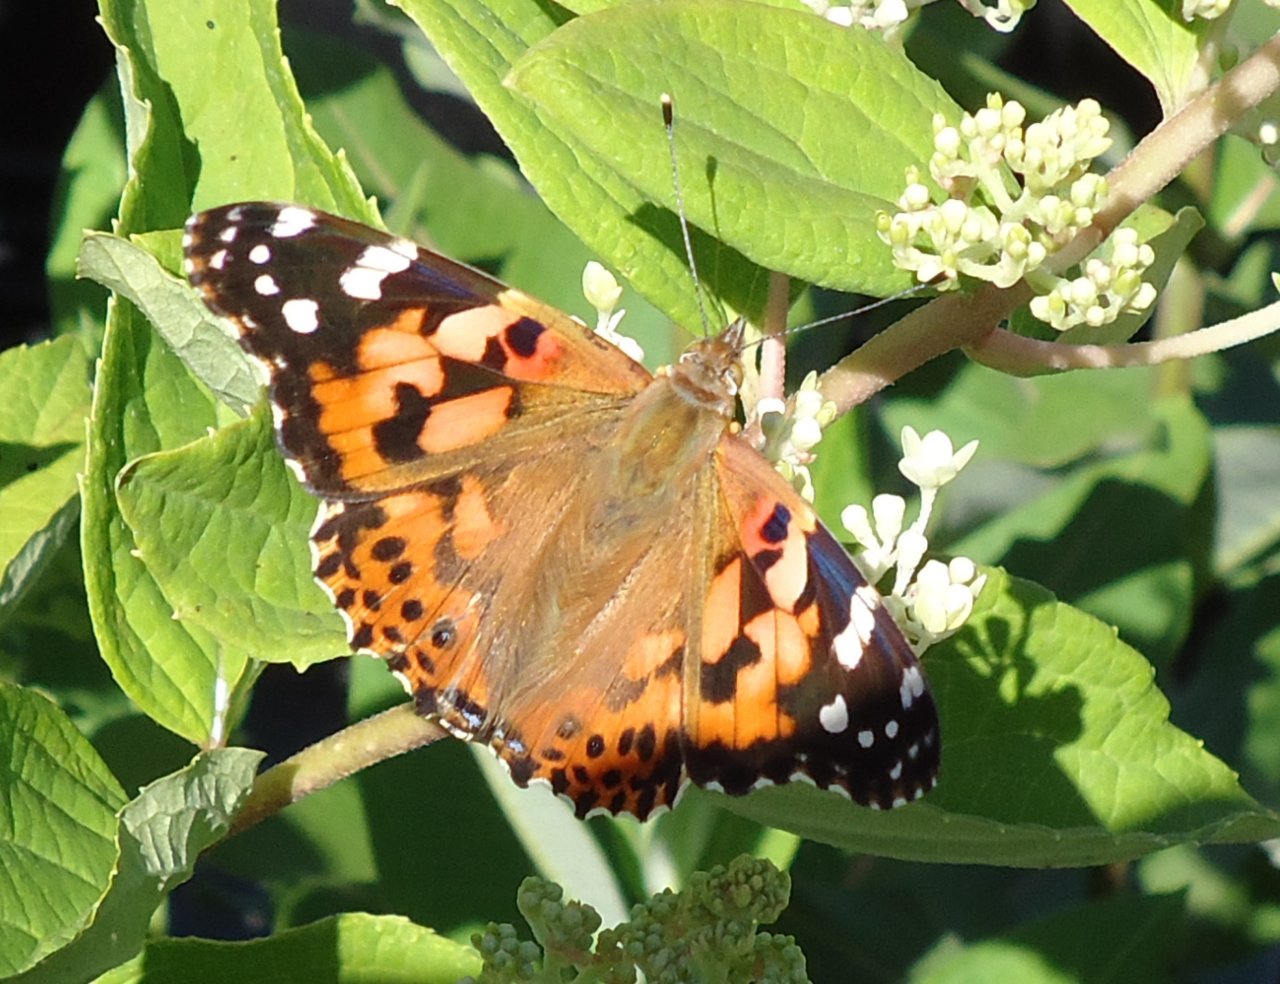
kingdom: Animalia
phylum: Arthropoda
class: Insecta
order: Lepidoptera
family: Nymphalidae
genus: Vanessa
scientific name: Vanessa cardui
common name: Painted Lady
